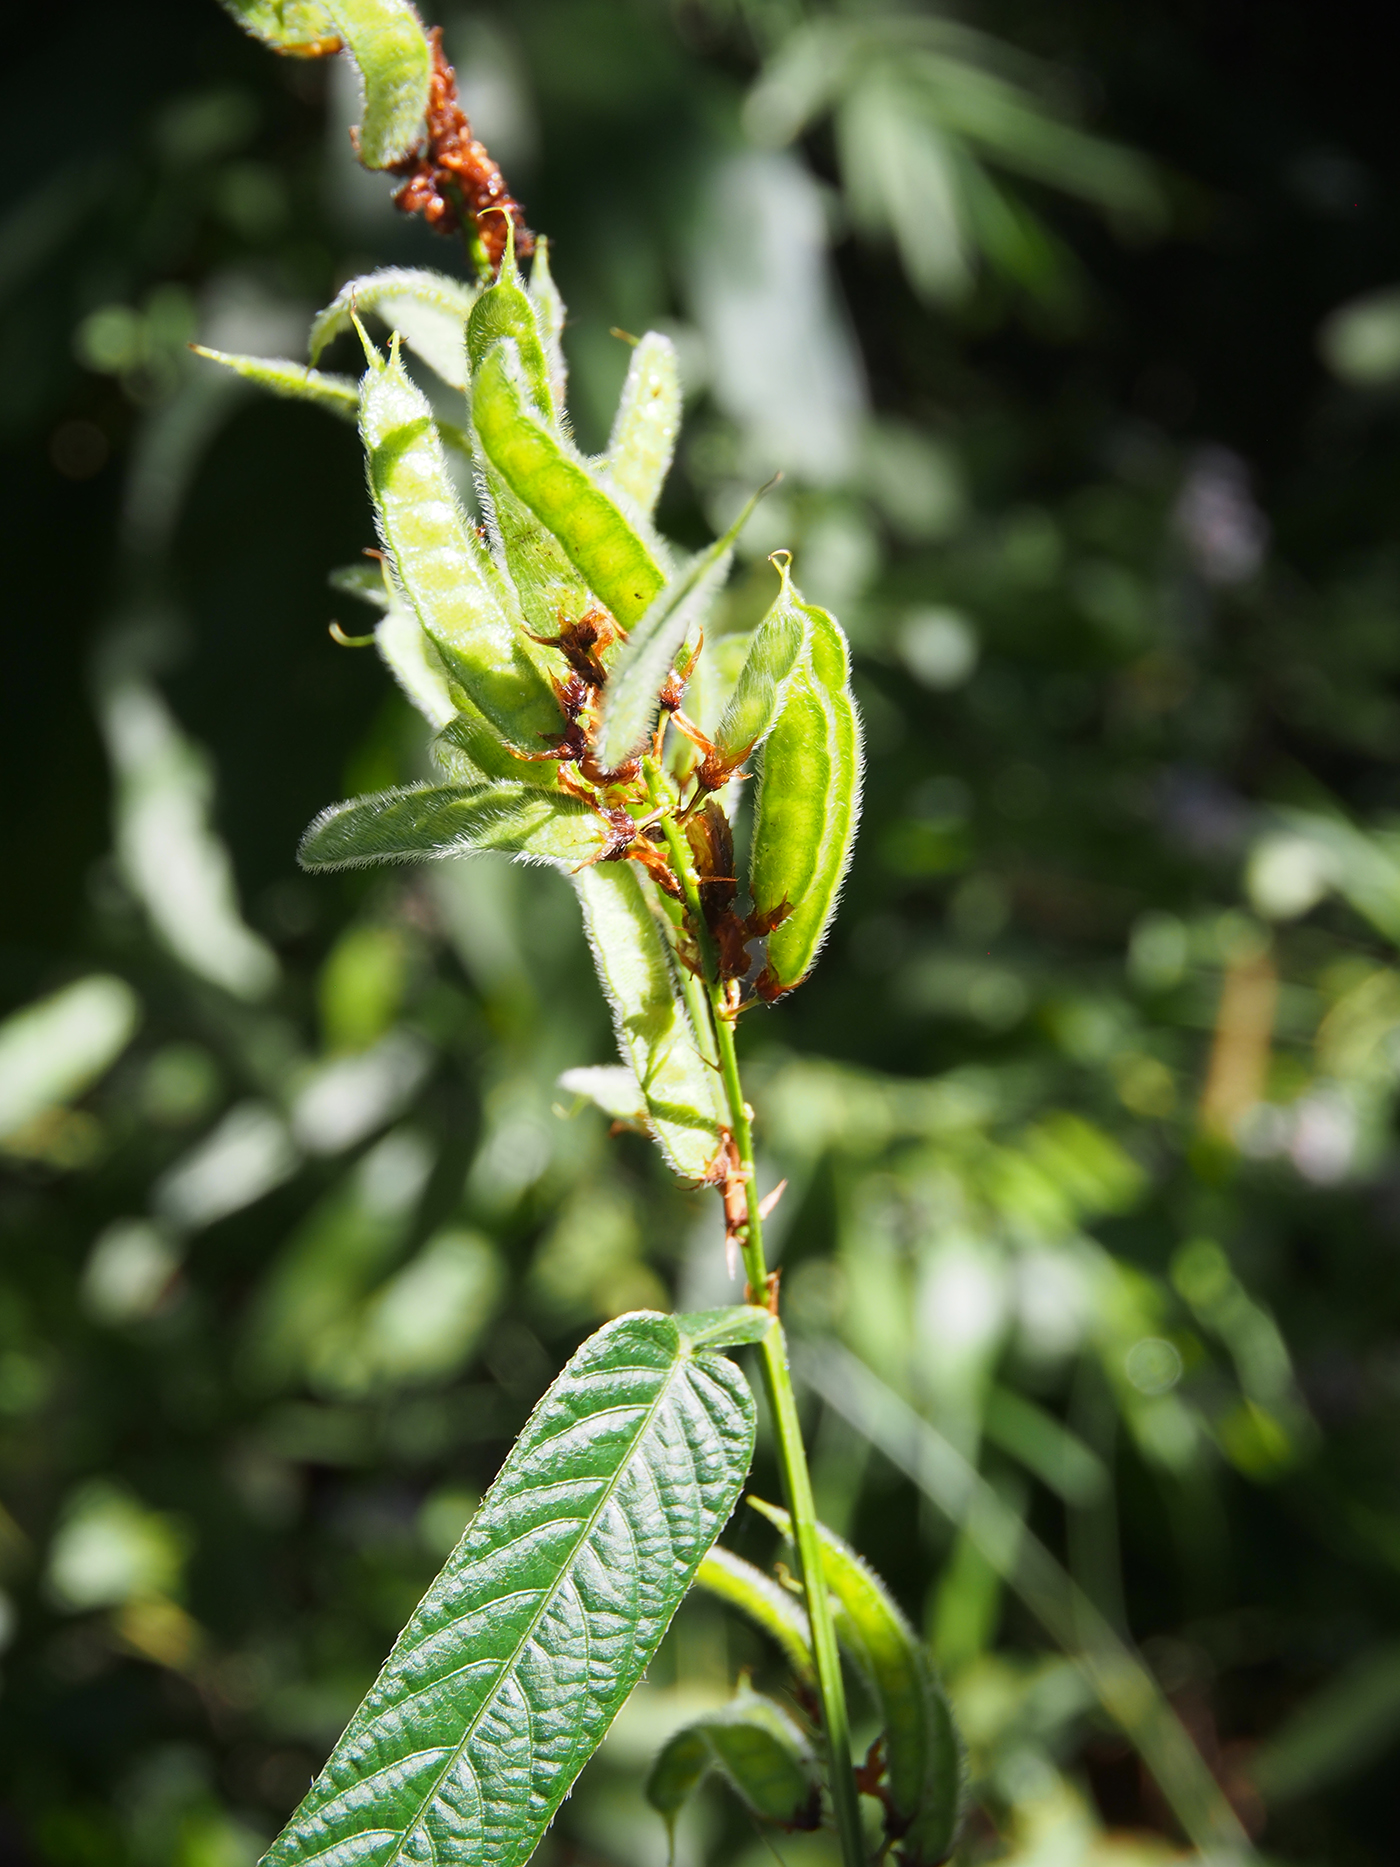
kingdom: Plantae
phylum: Tracheophyta
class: Magnoliopsida
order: Fabales
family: Fabaceae
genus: Tadehagi
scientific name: Tadehagi triquetrum
